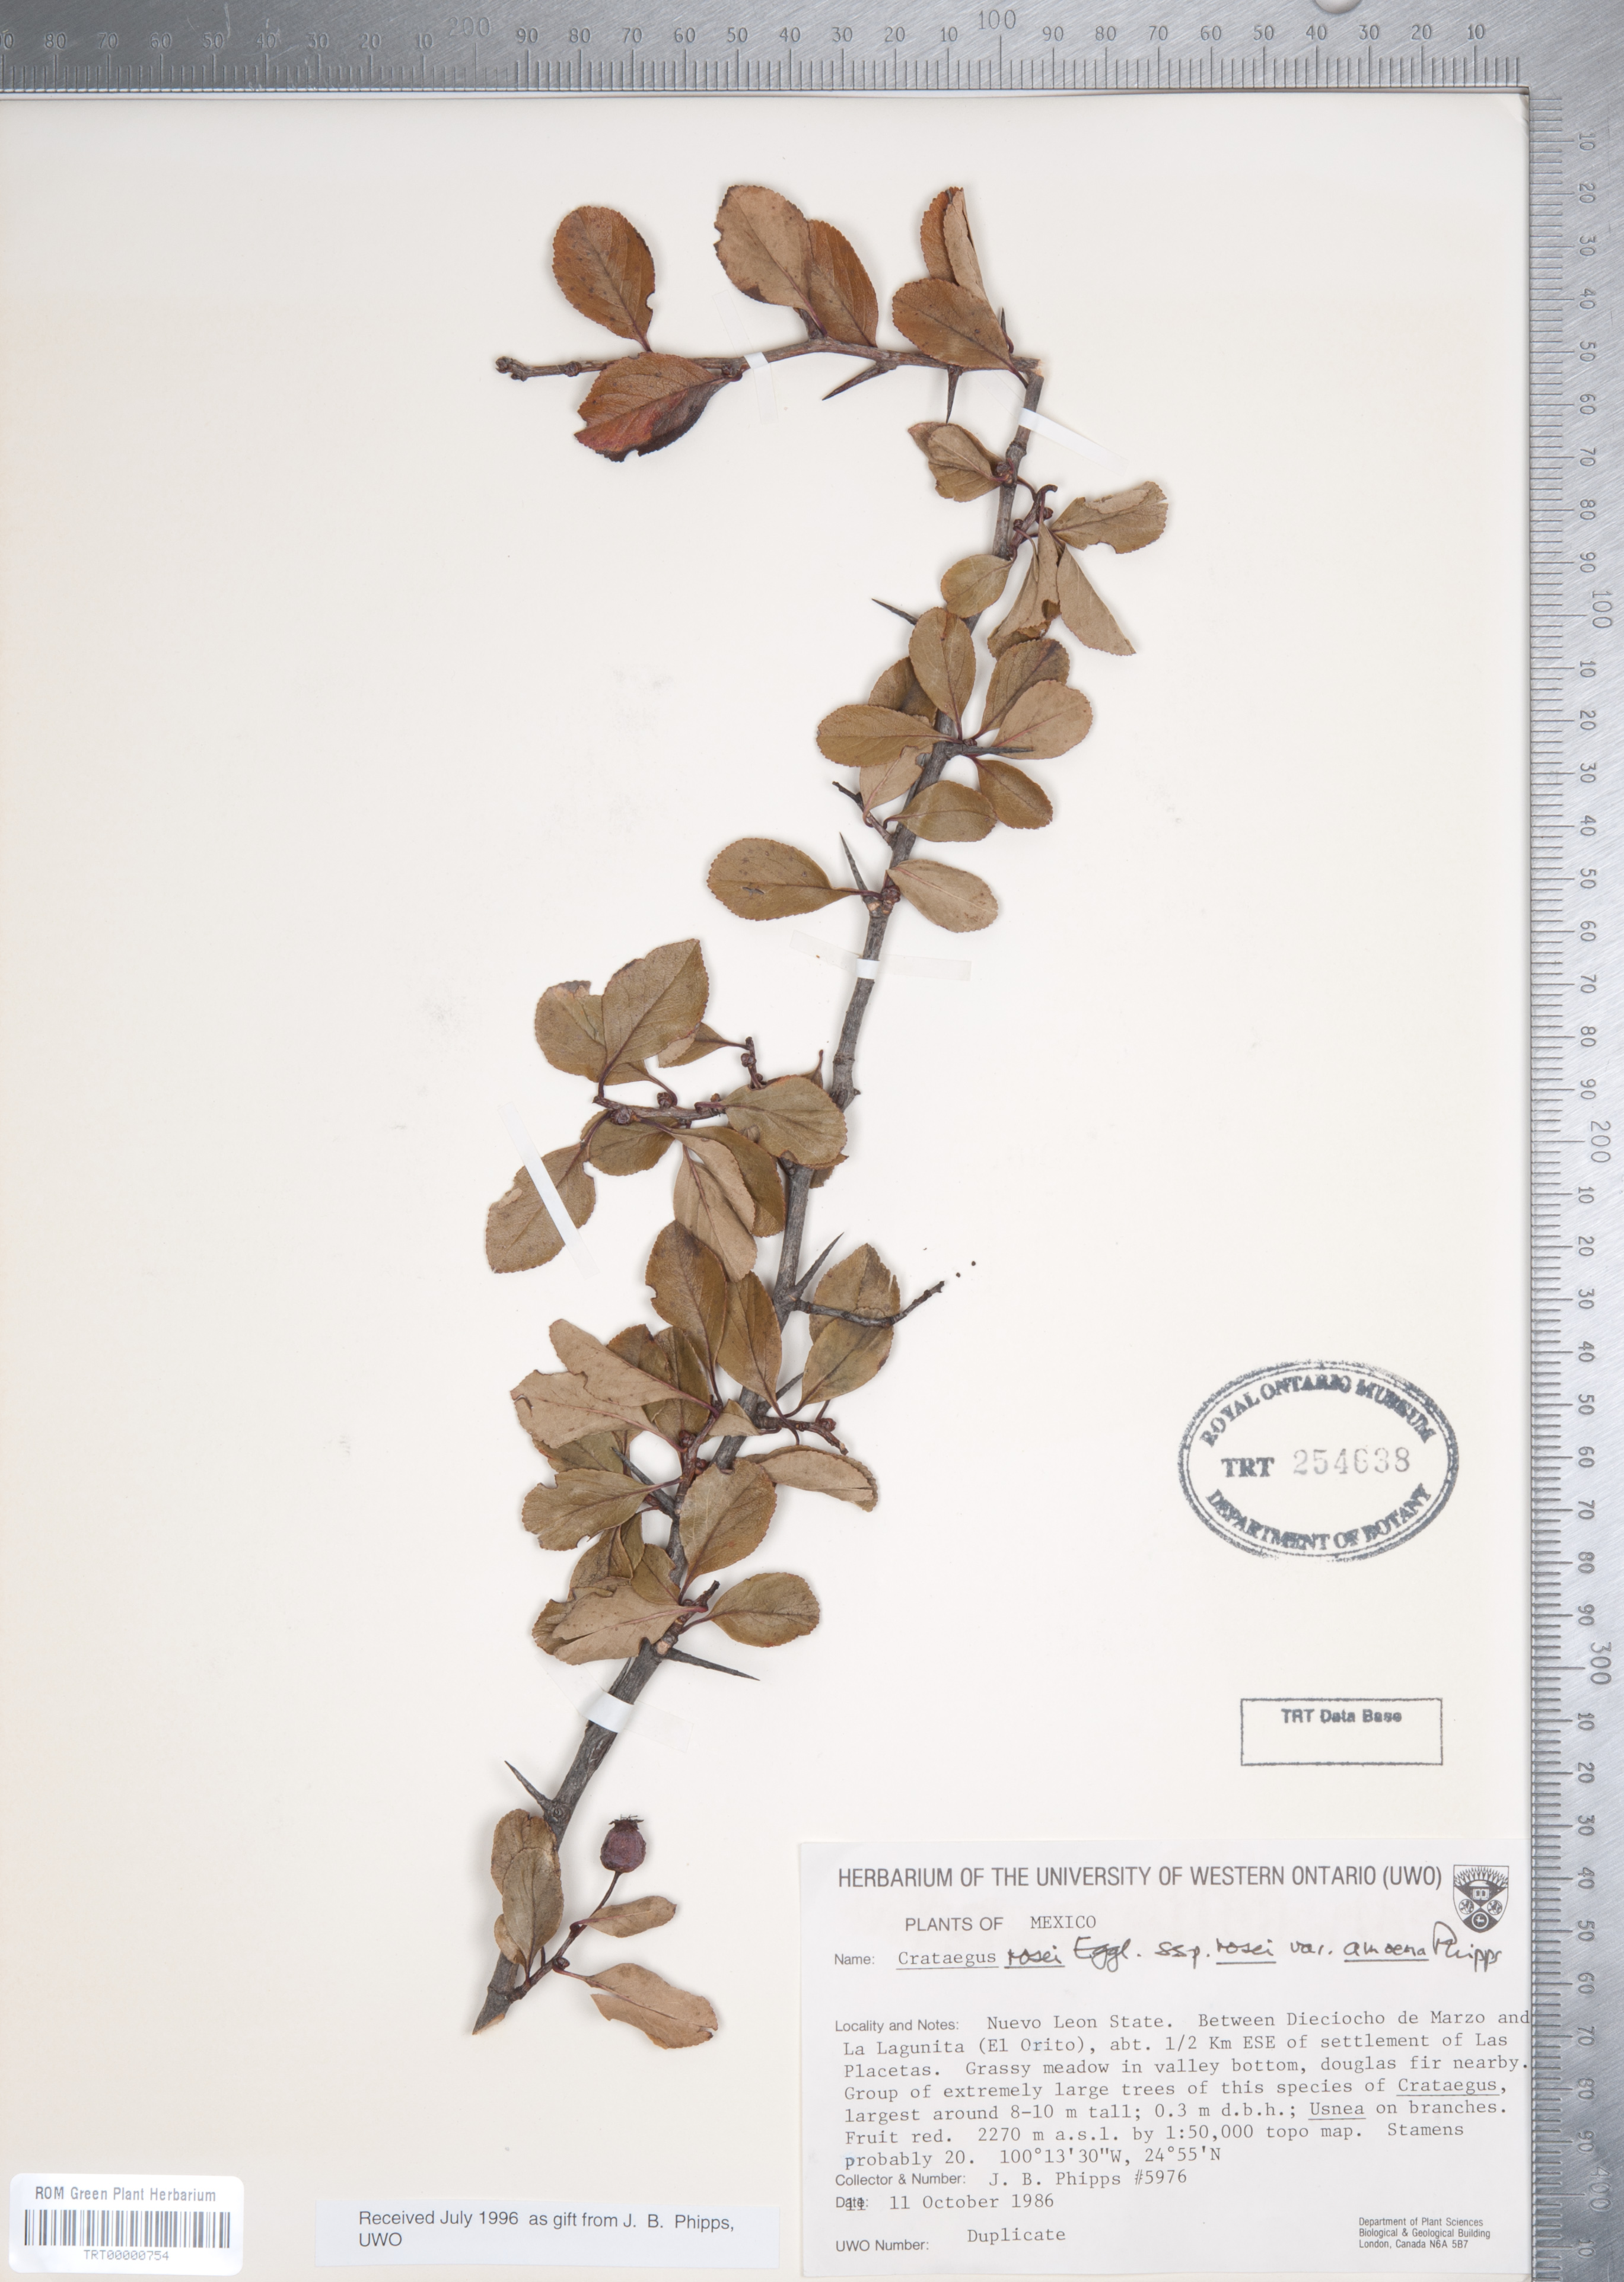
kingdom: Plantae
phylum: Tracheophyta
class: Magnoliopsida
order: Rosales
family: Rosaceae
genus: Crataegus
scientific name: Crataegus rosei
